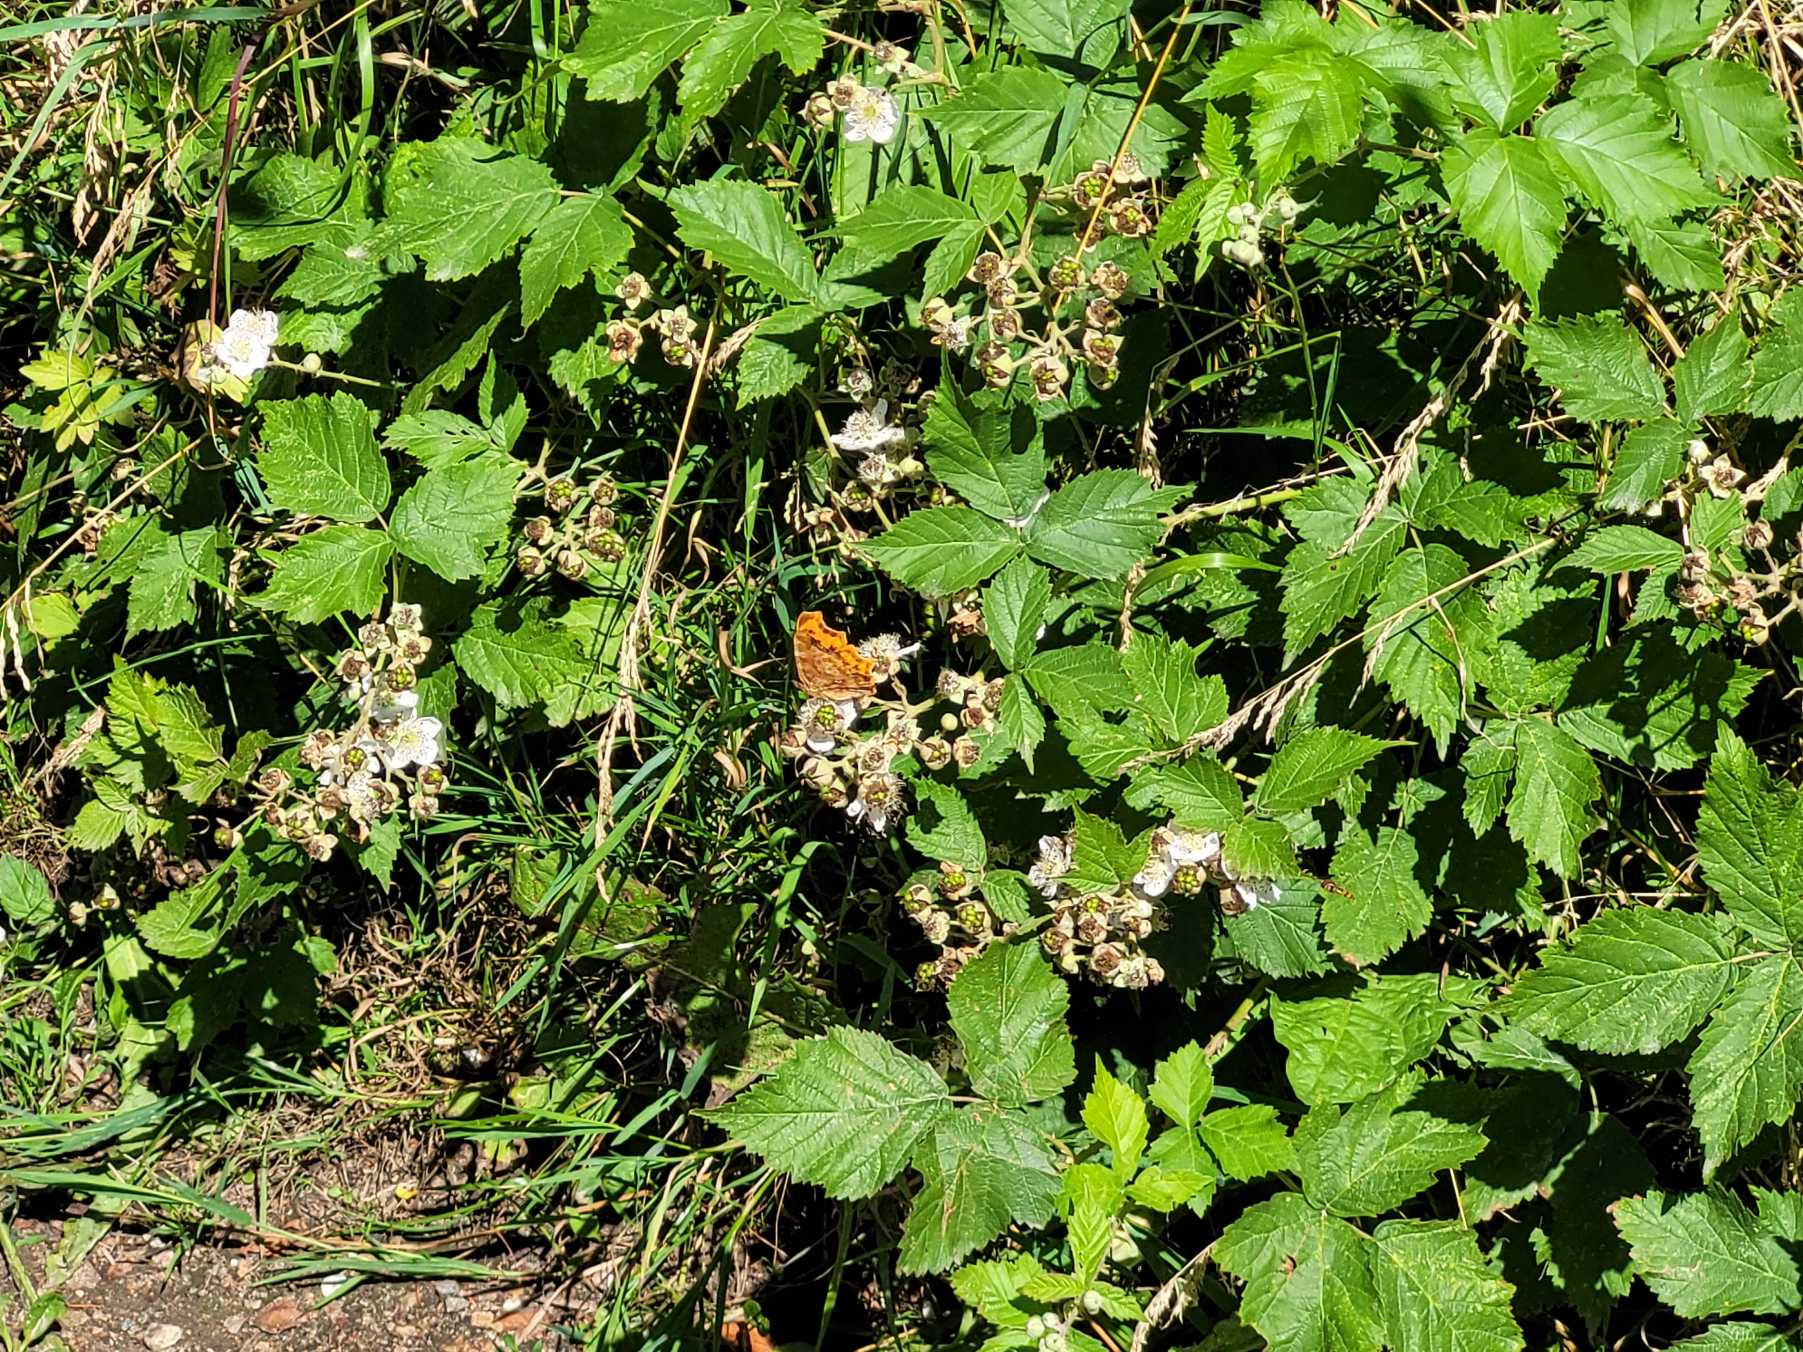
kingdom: Animalia
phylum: Arthropoda
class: Insecta
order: Lepidoptera
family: Nymphalidae
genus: Polygonia
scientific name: Polygonia c-album
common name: Det hvide C
